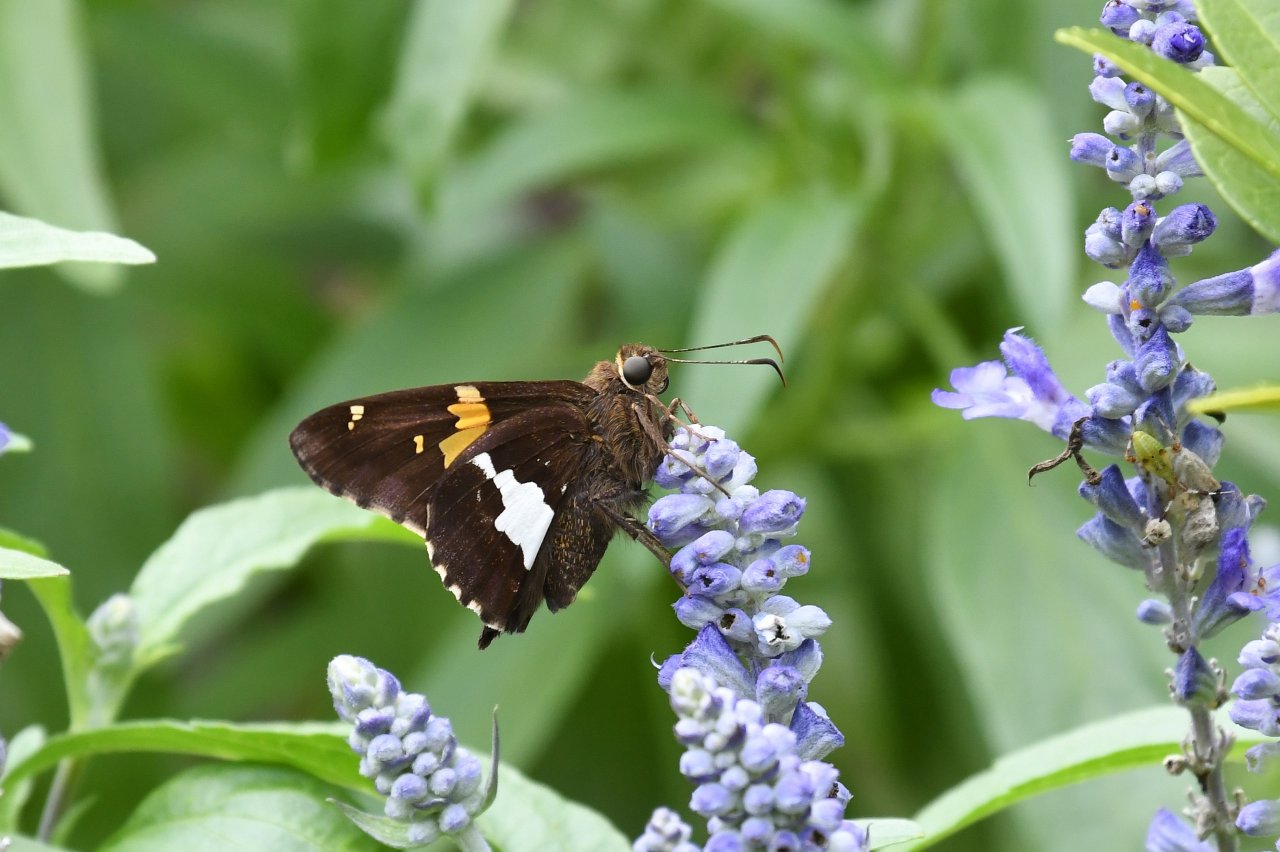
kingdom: Animalia
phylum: Arthropoda
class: Insecta
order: Lepidoptera
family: Hesperiidae
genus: Epargyreus
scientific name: Epargyreus clarus
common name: Silver-spotted Skipper
